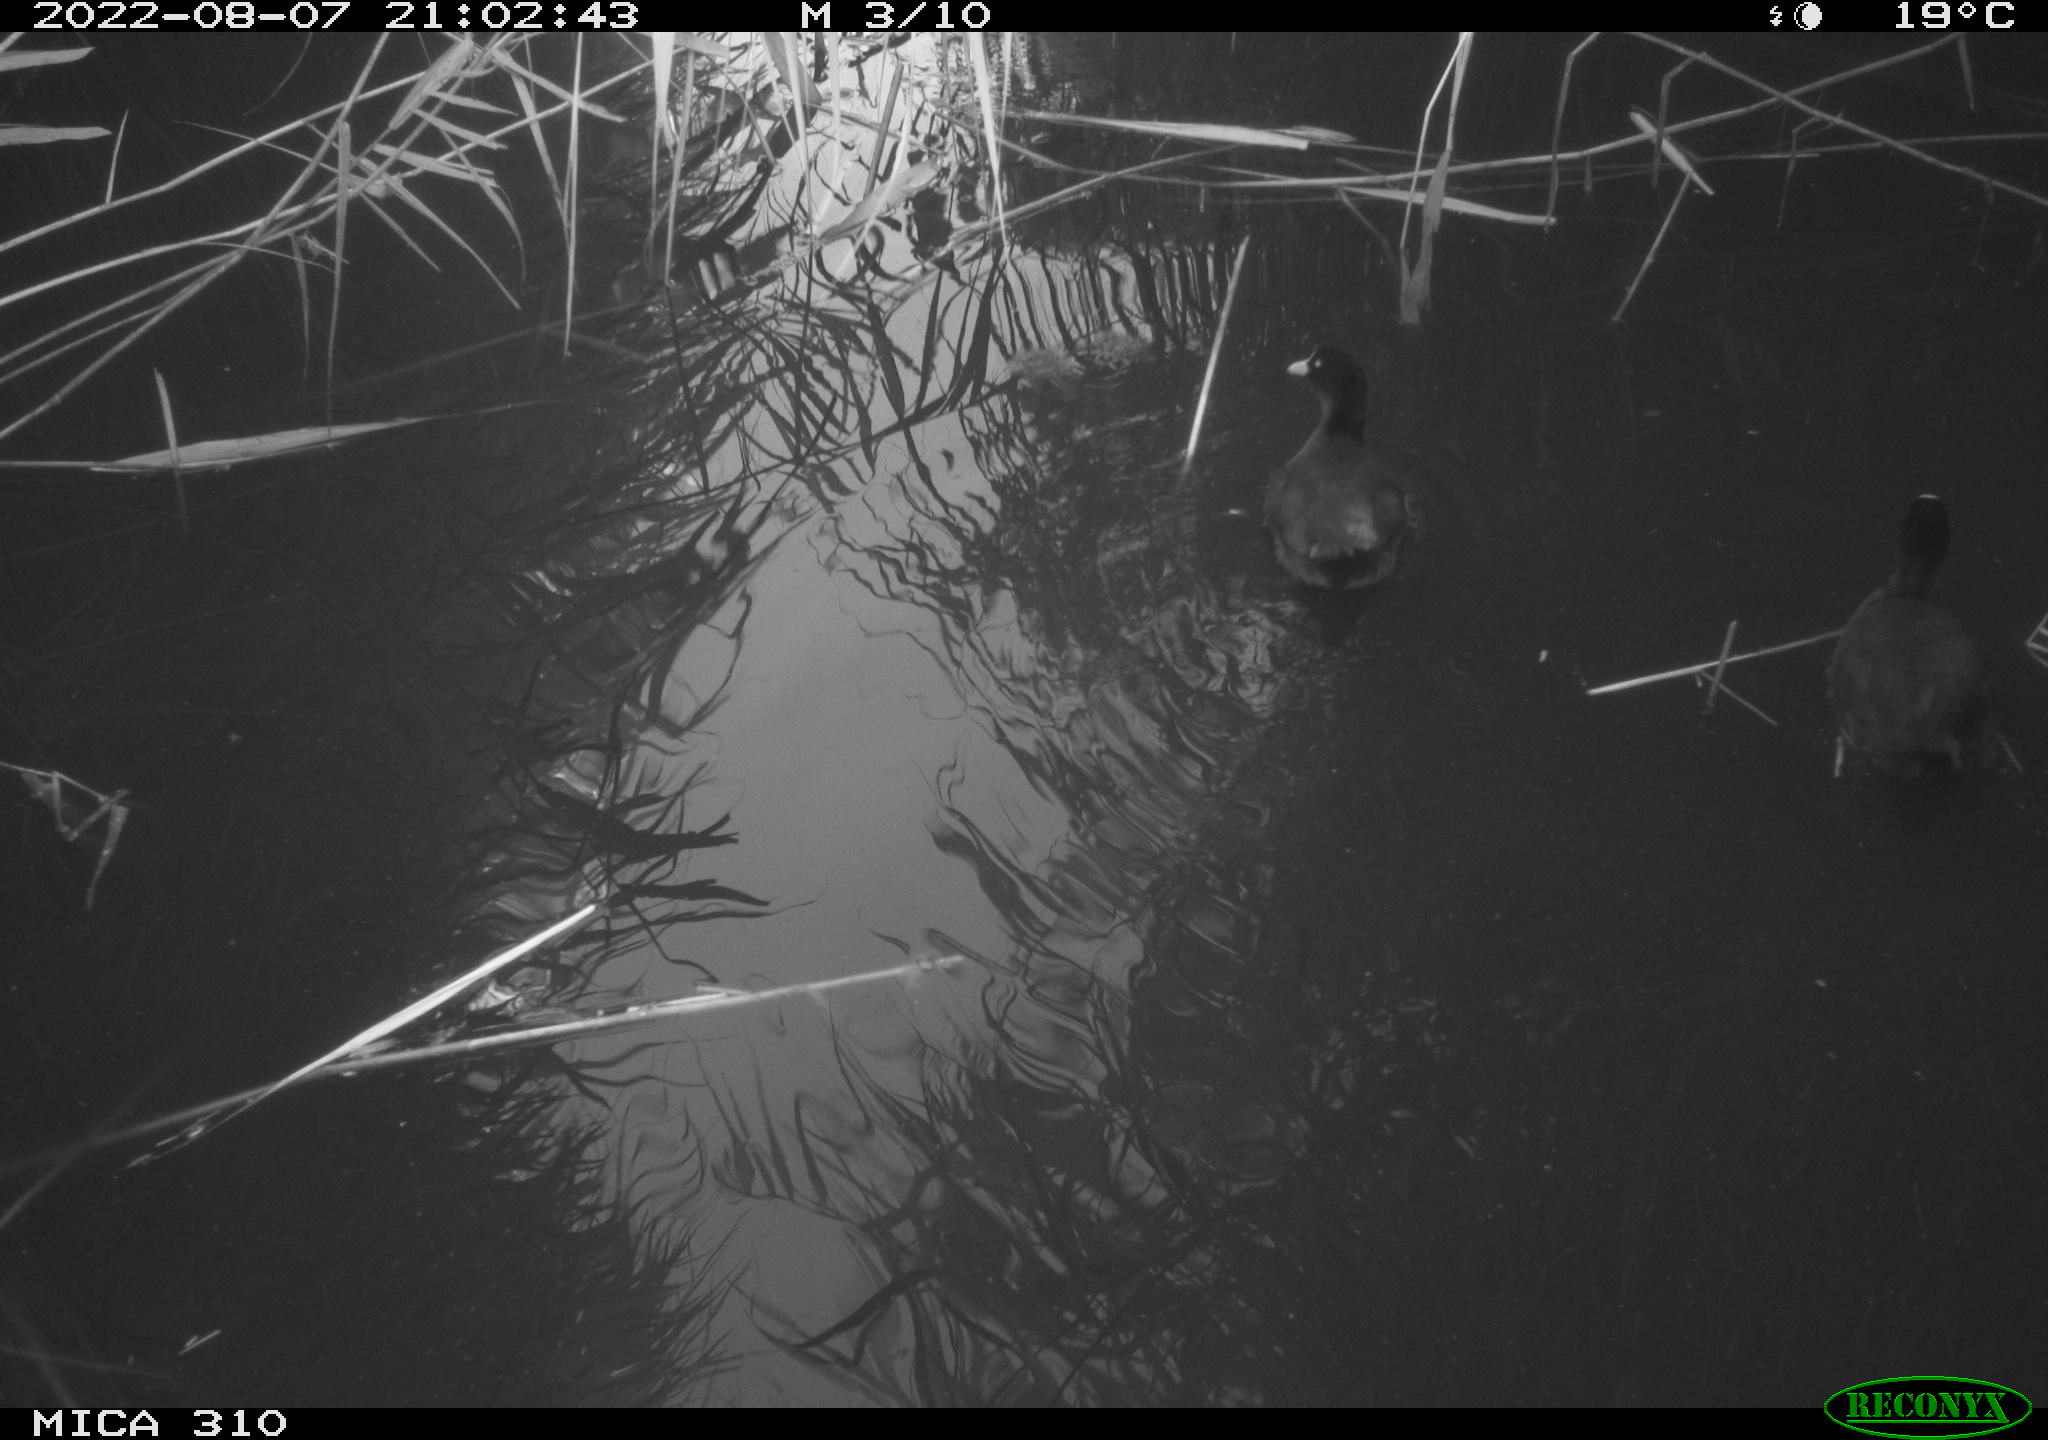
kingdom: Animalia
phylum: Chordata
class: Aves
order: Gruiformes
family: Rallidae
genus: Fulica
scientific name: Fulica atra
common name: Eurasian coot
